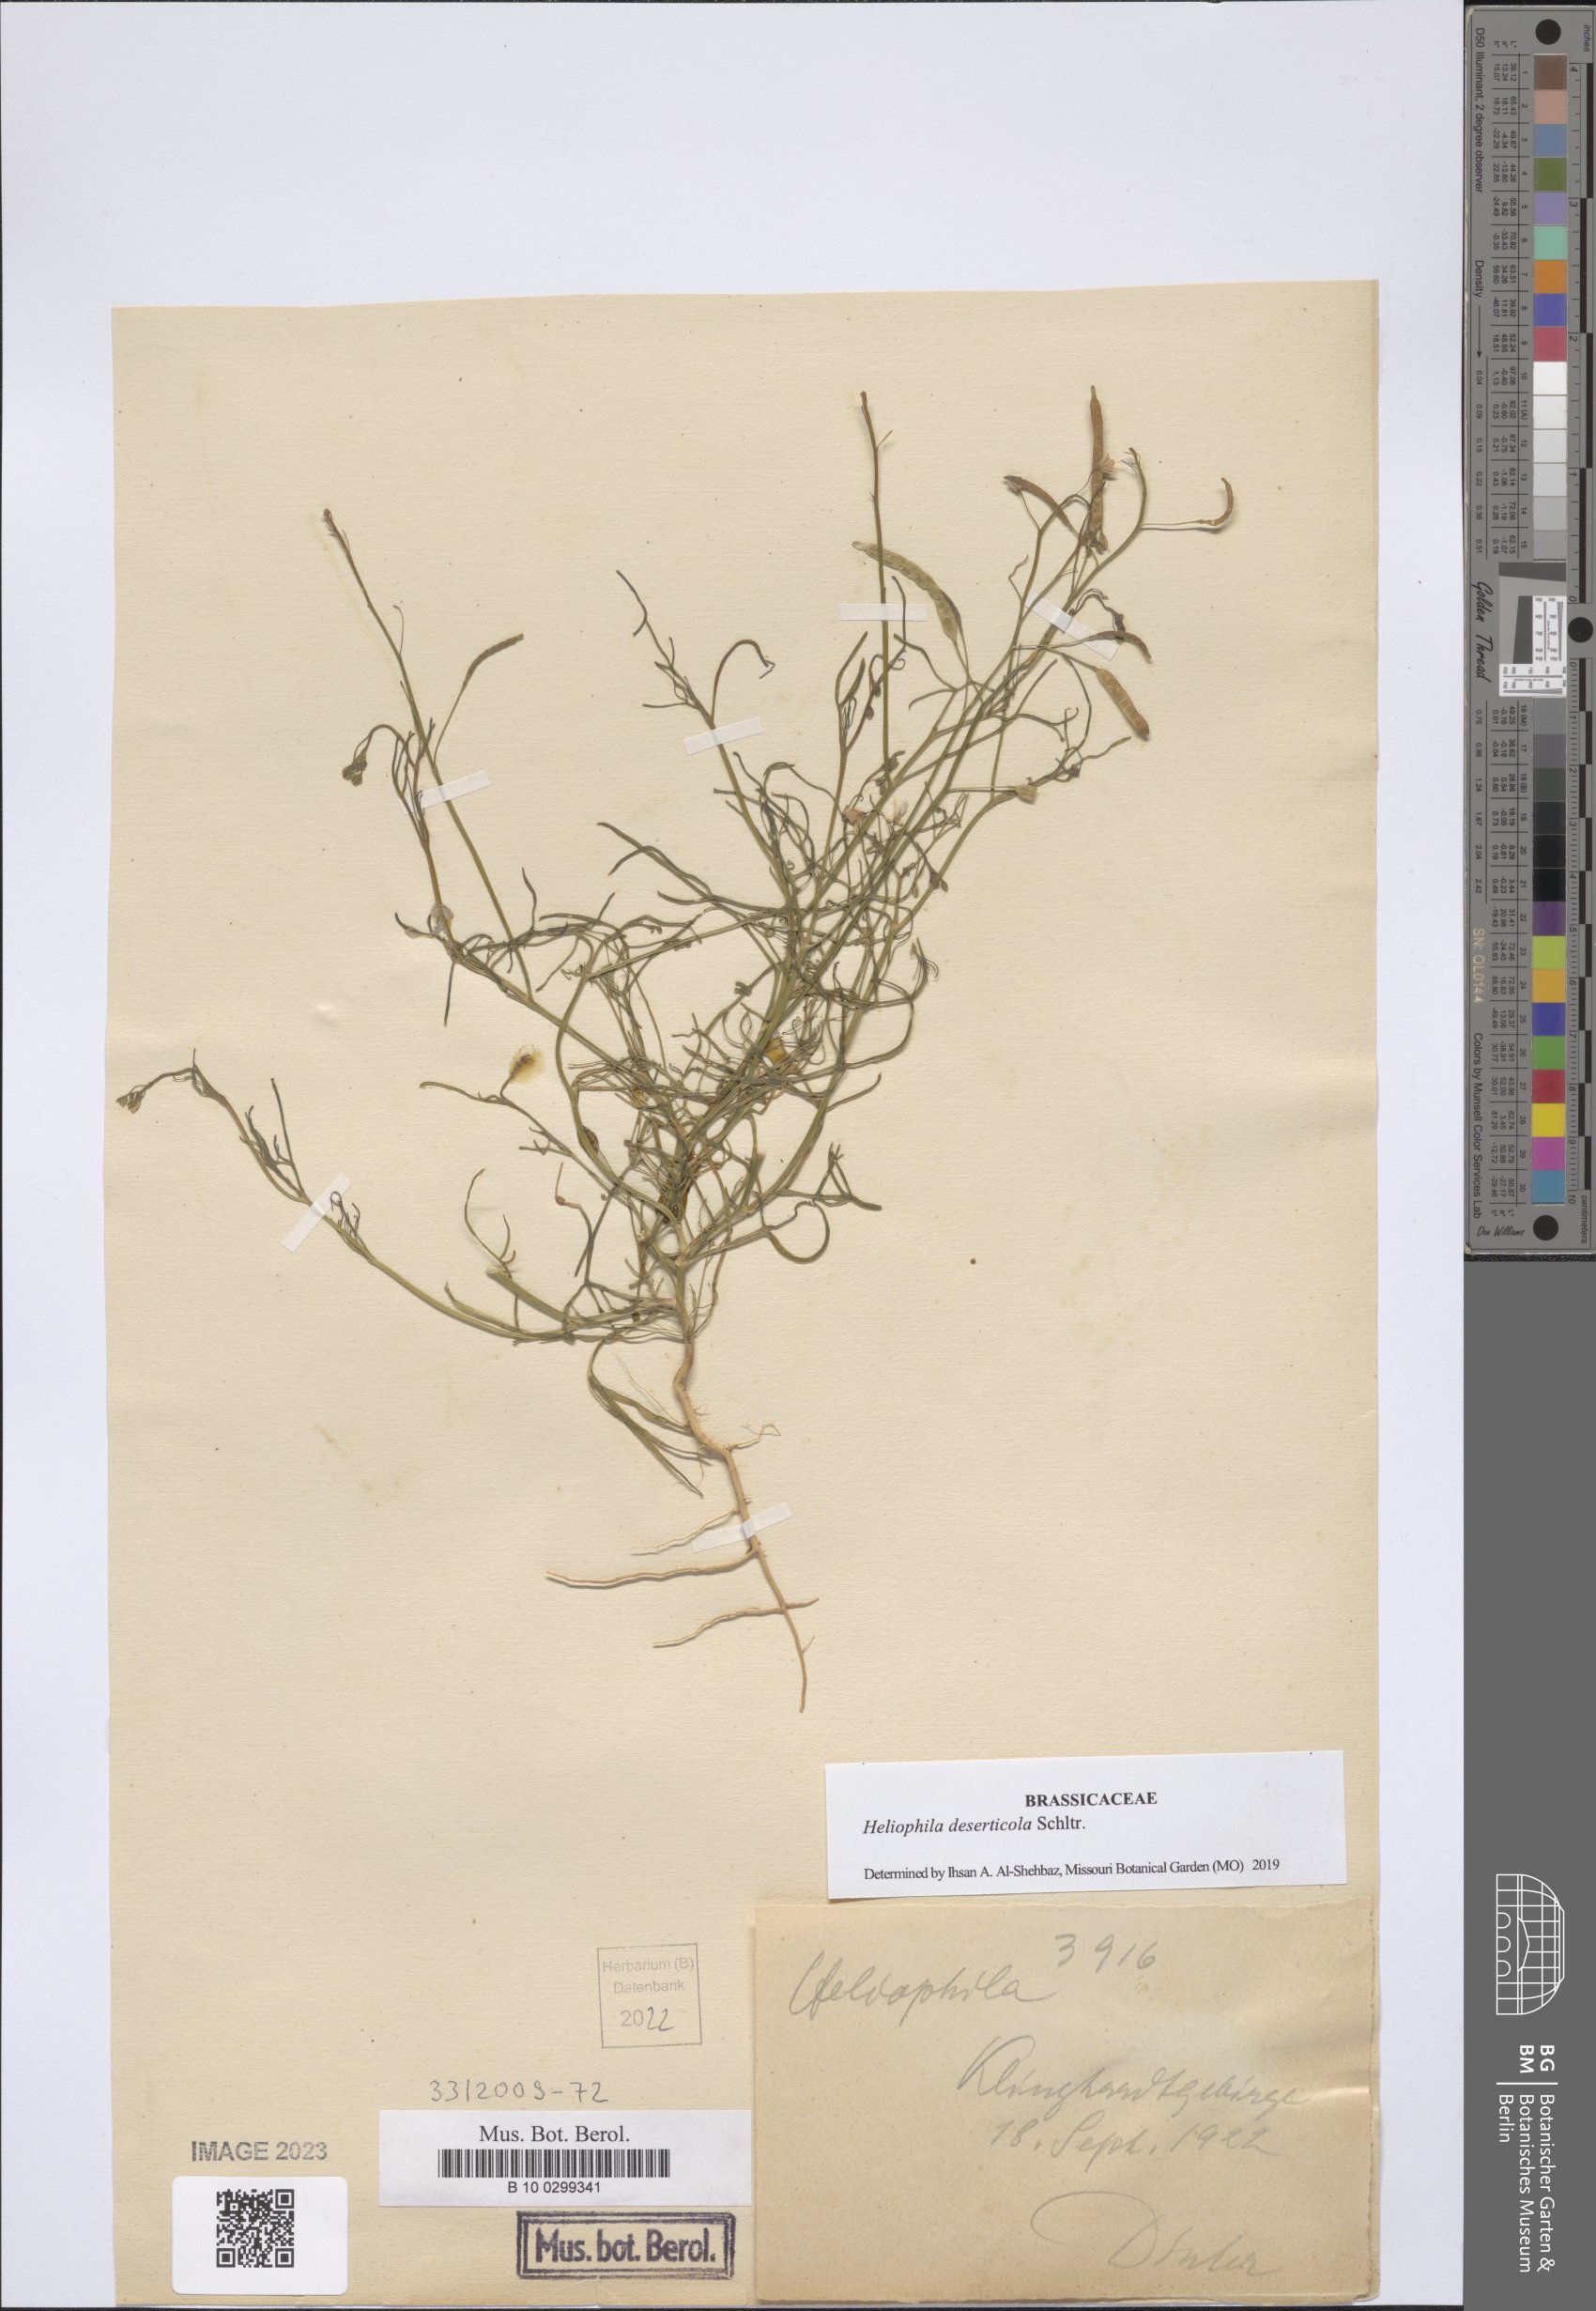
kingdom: Plantae
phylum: Tracheophyta
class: Magnoliopsida
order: Brassicales
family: Brassicaceae
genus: Heliophila
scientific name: Heliophila deserticola
